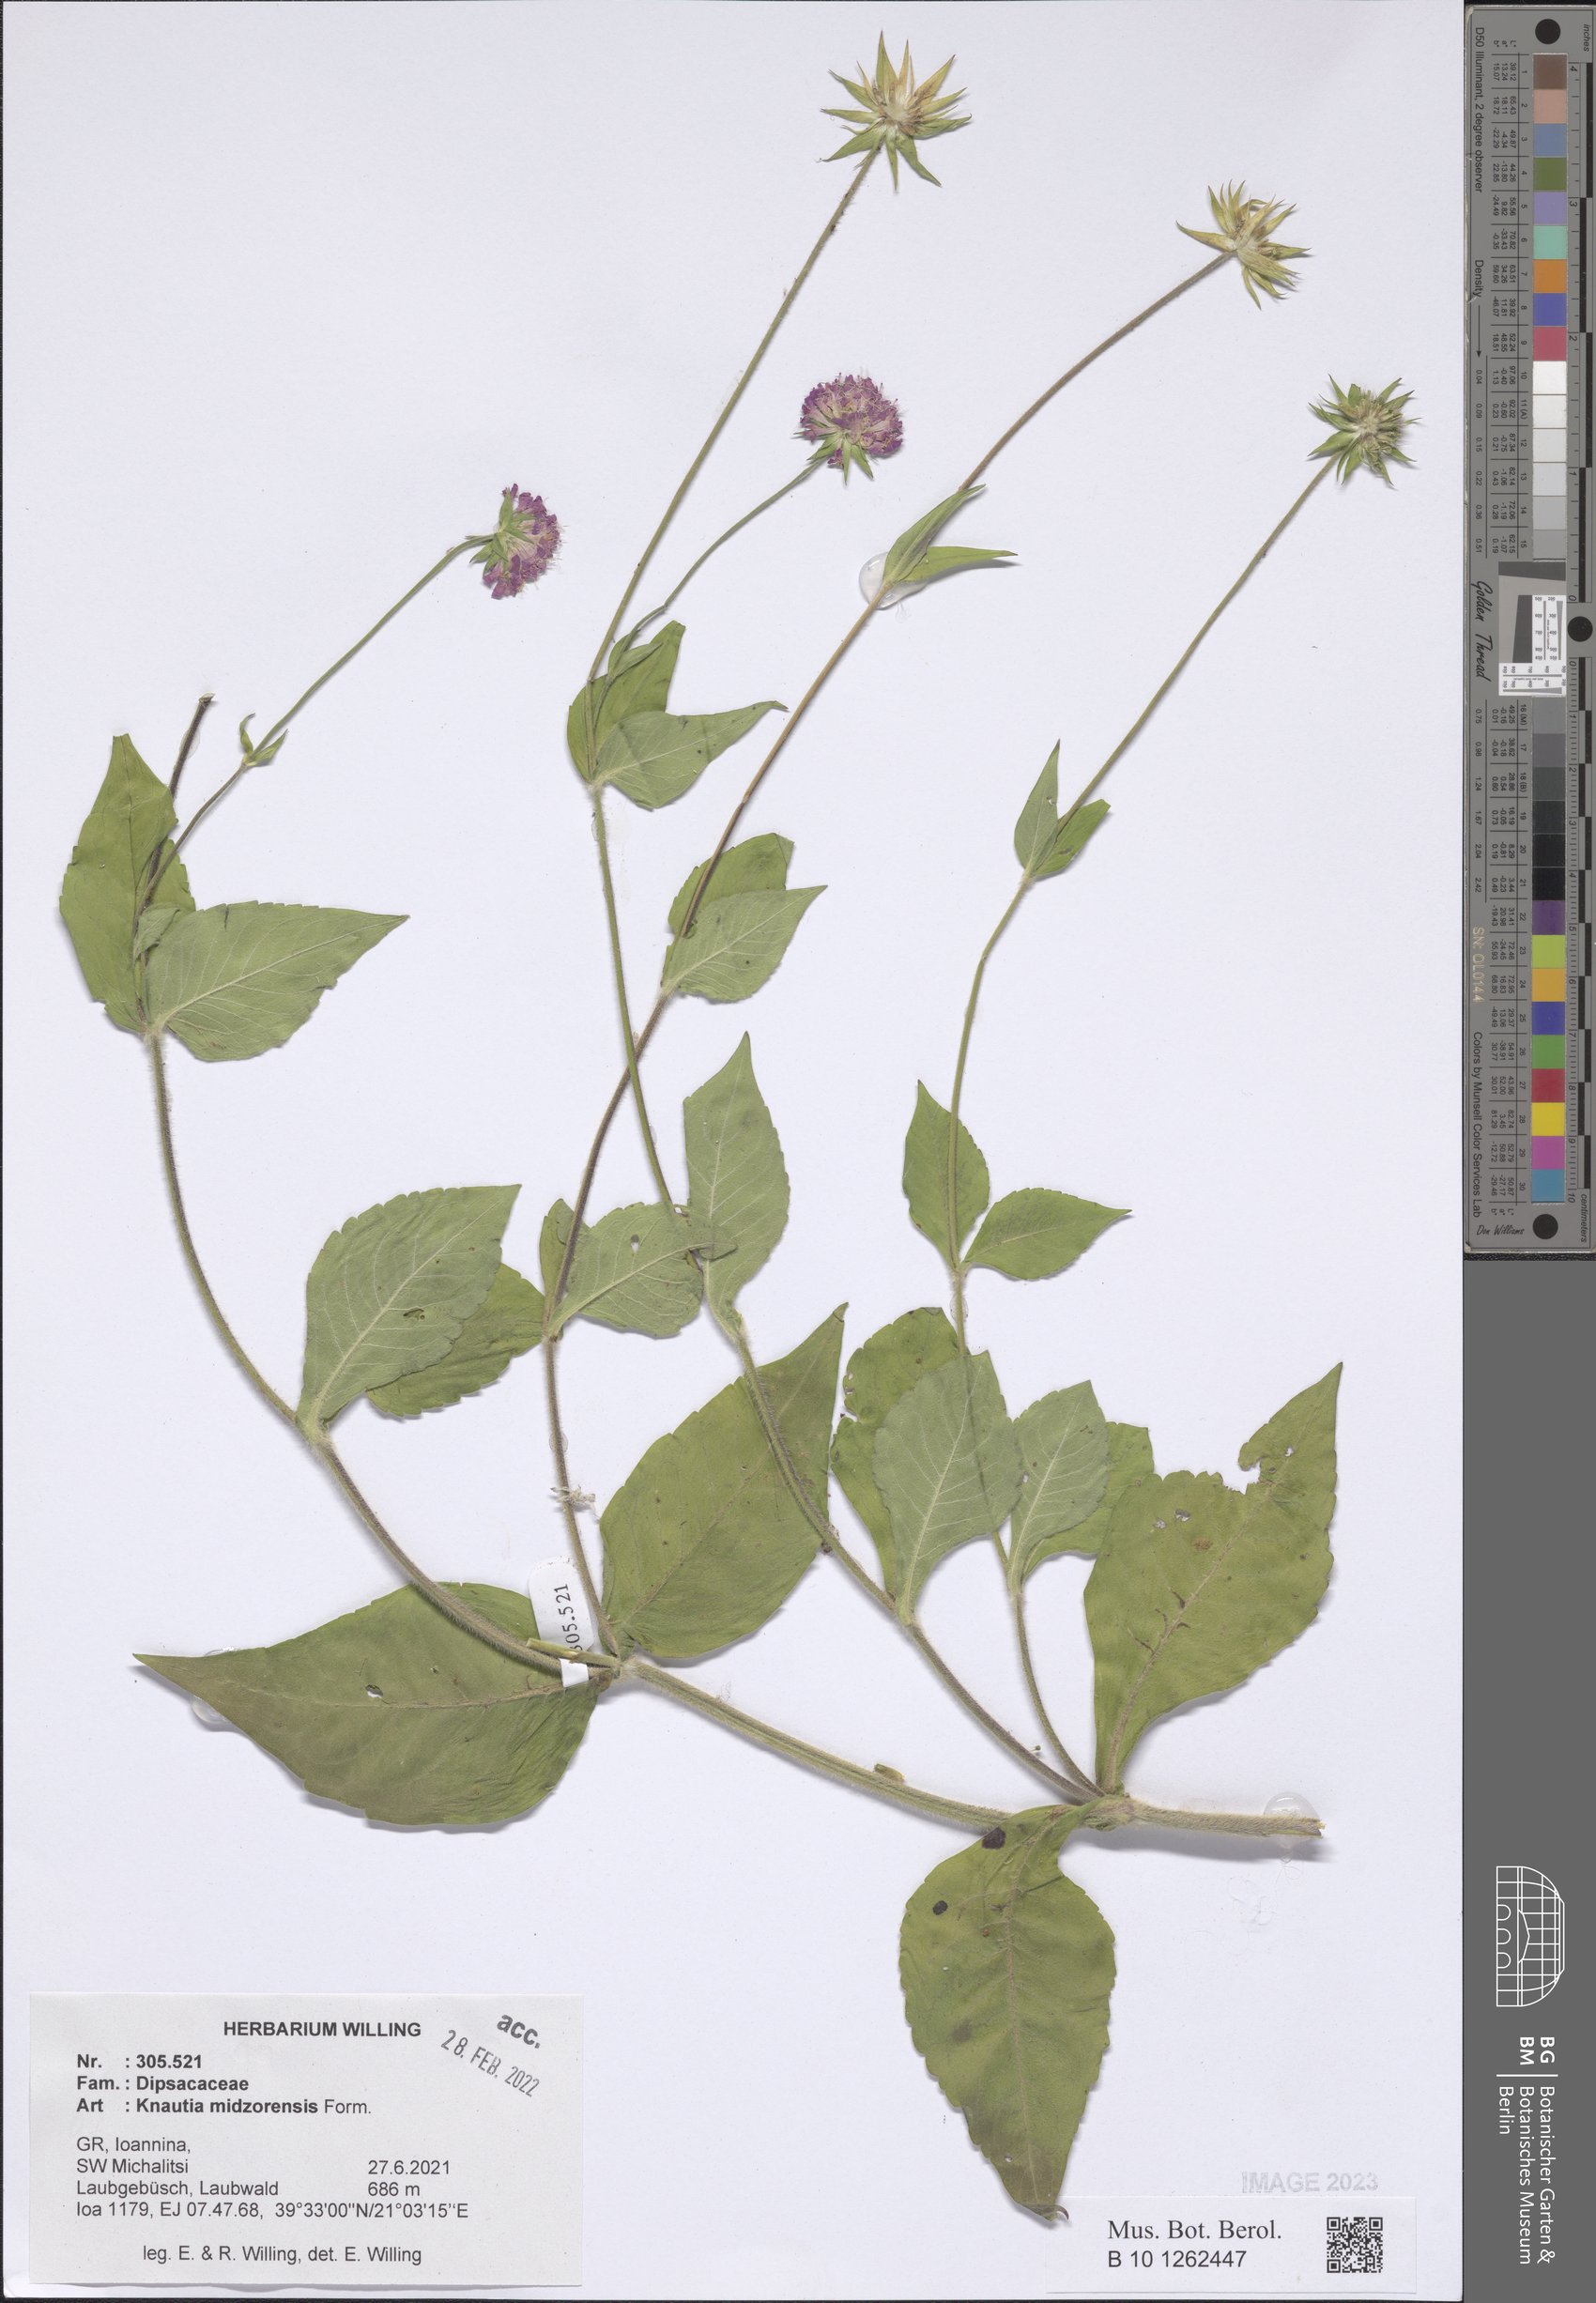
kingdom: Plantae
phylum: Tracheophyta
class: Magnoliopsida
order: Dipsacales
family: Caprifoliaceae
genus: Knautia
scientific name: Knautia midzorensis
